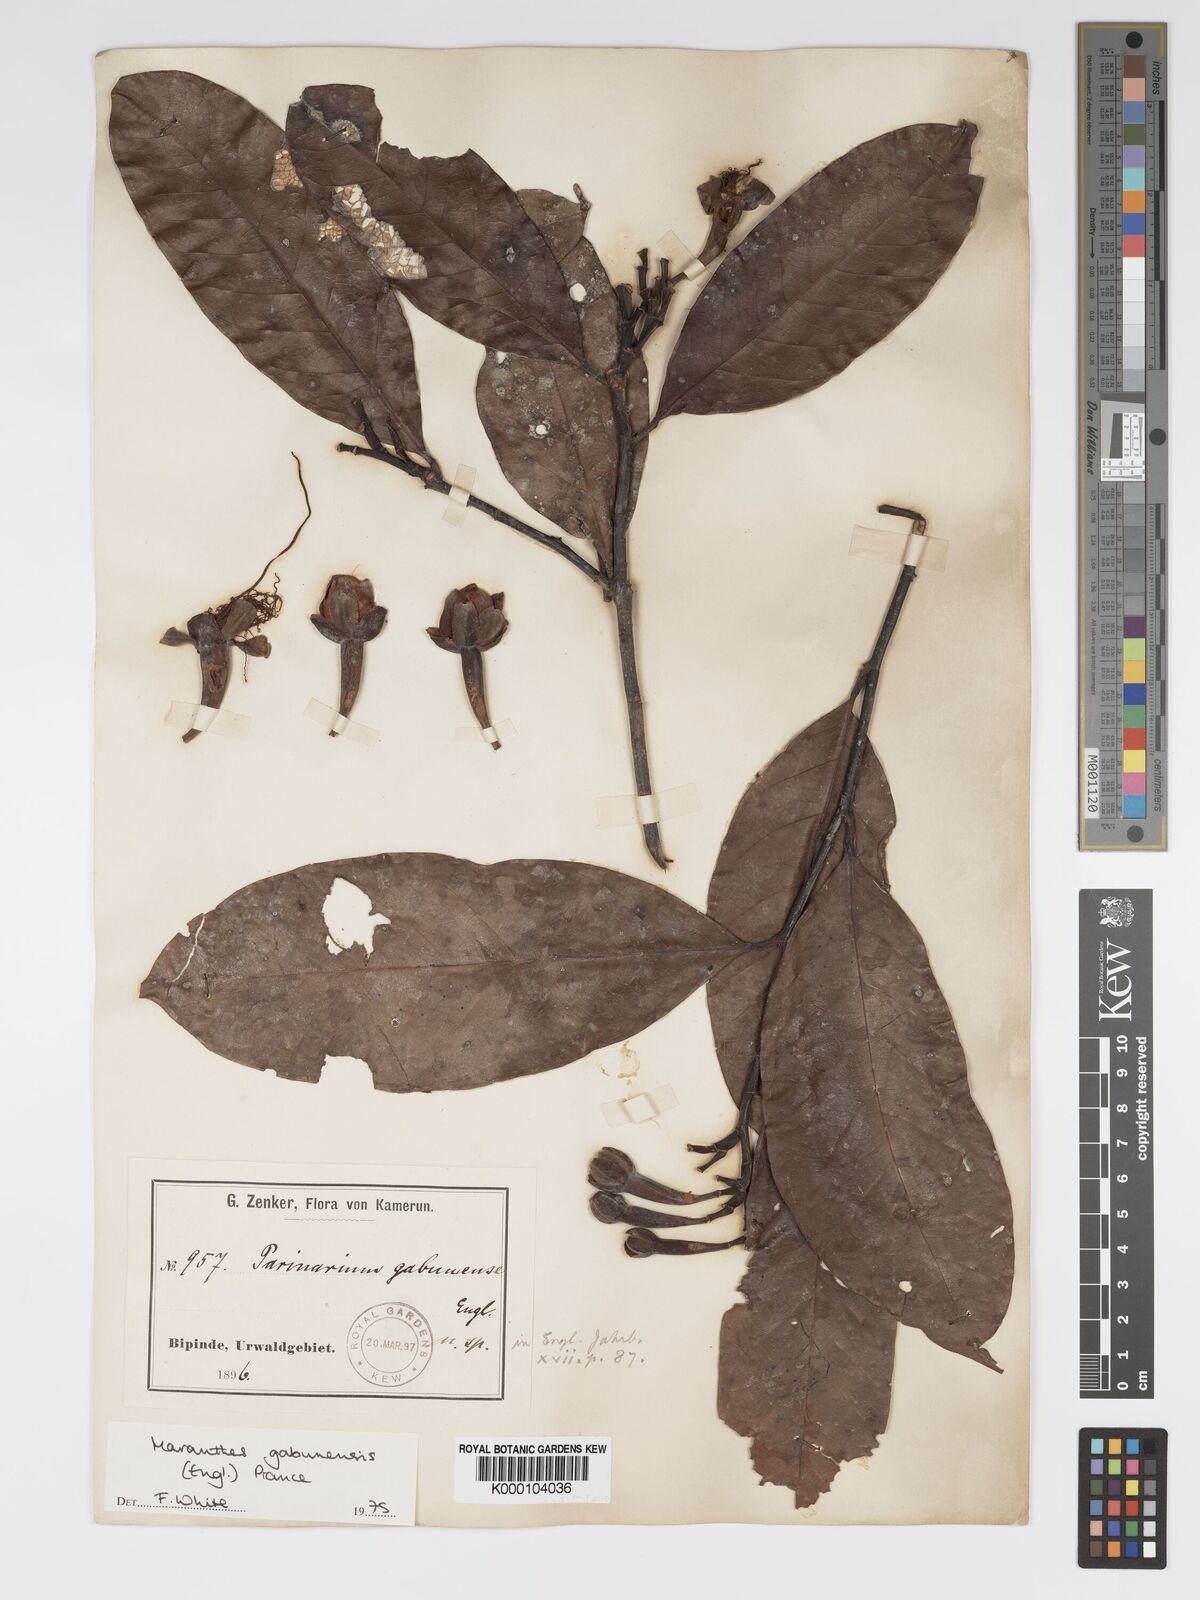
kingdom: Plantae
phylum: Tracheophyta
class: Magnoliopsida
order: Malpighiales
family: Chrysobalanaceae
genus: Maranthes
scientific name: Maranthes gabunensis
